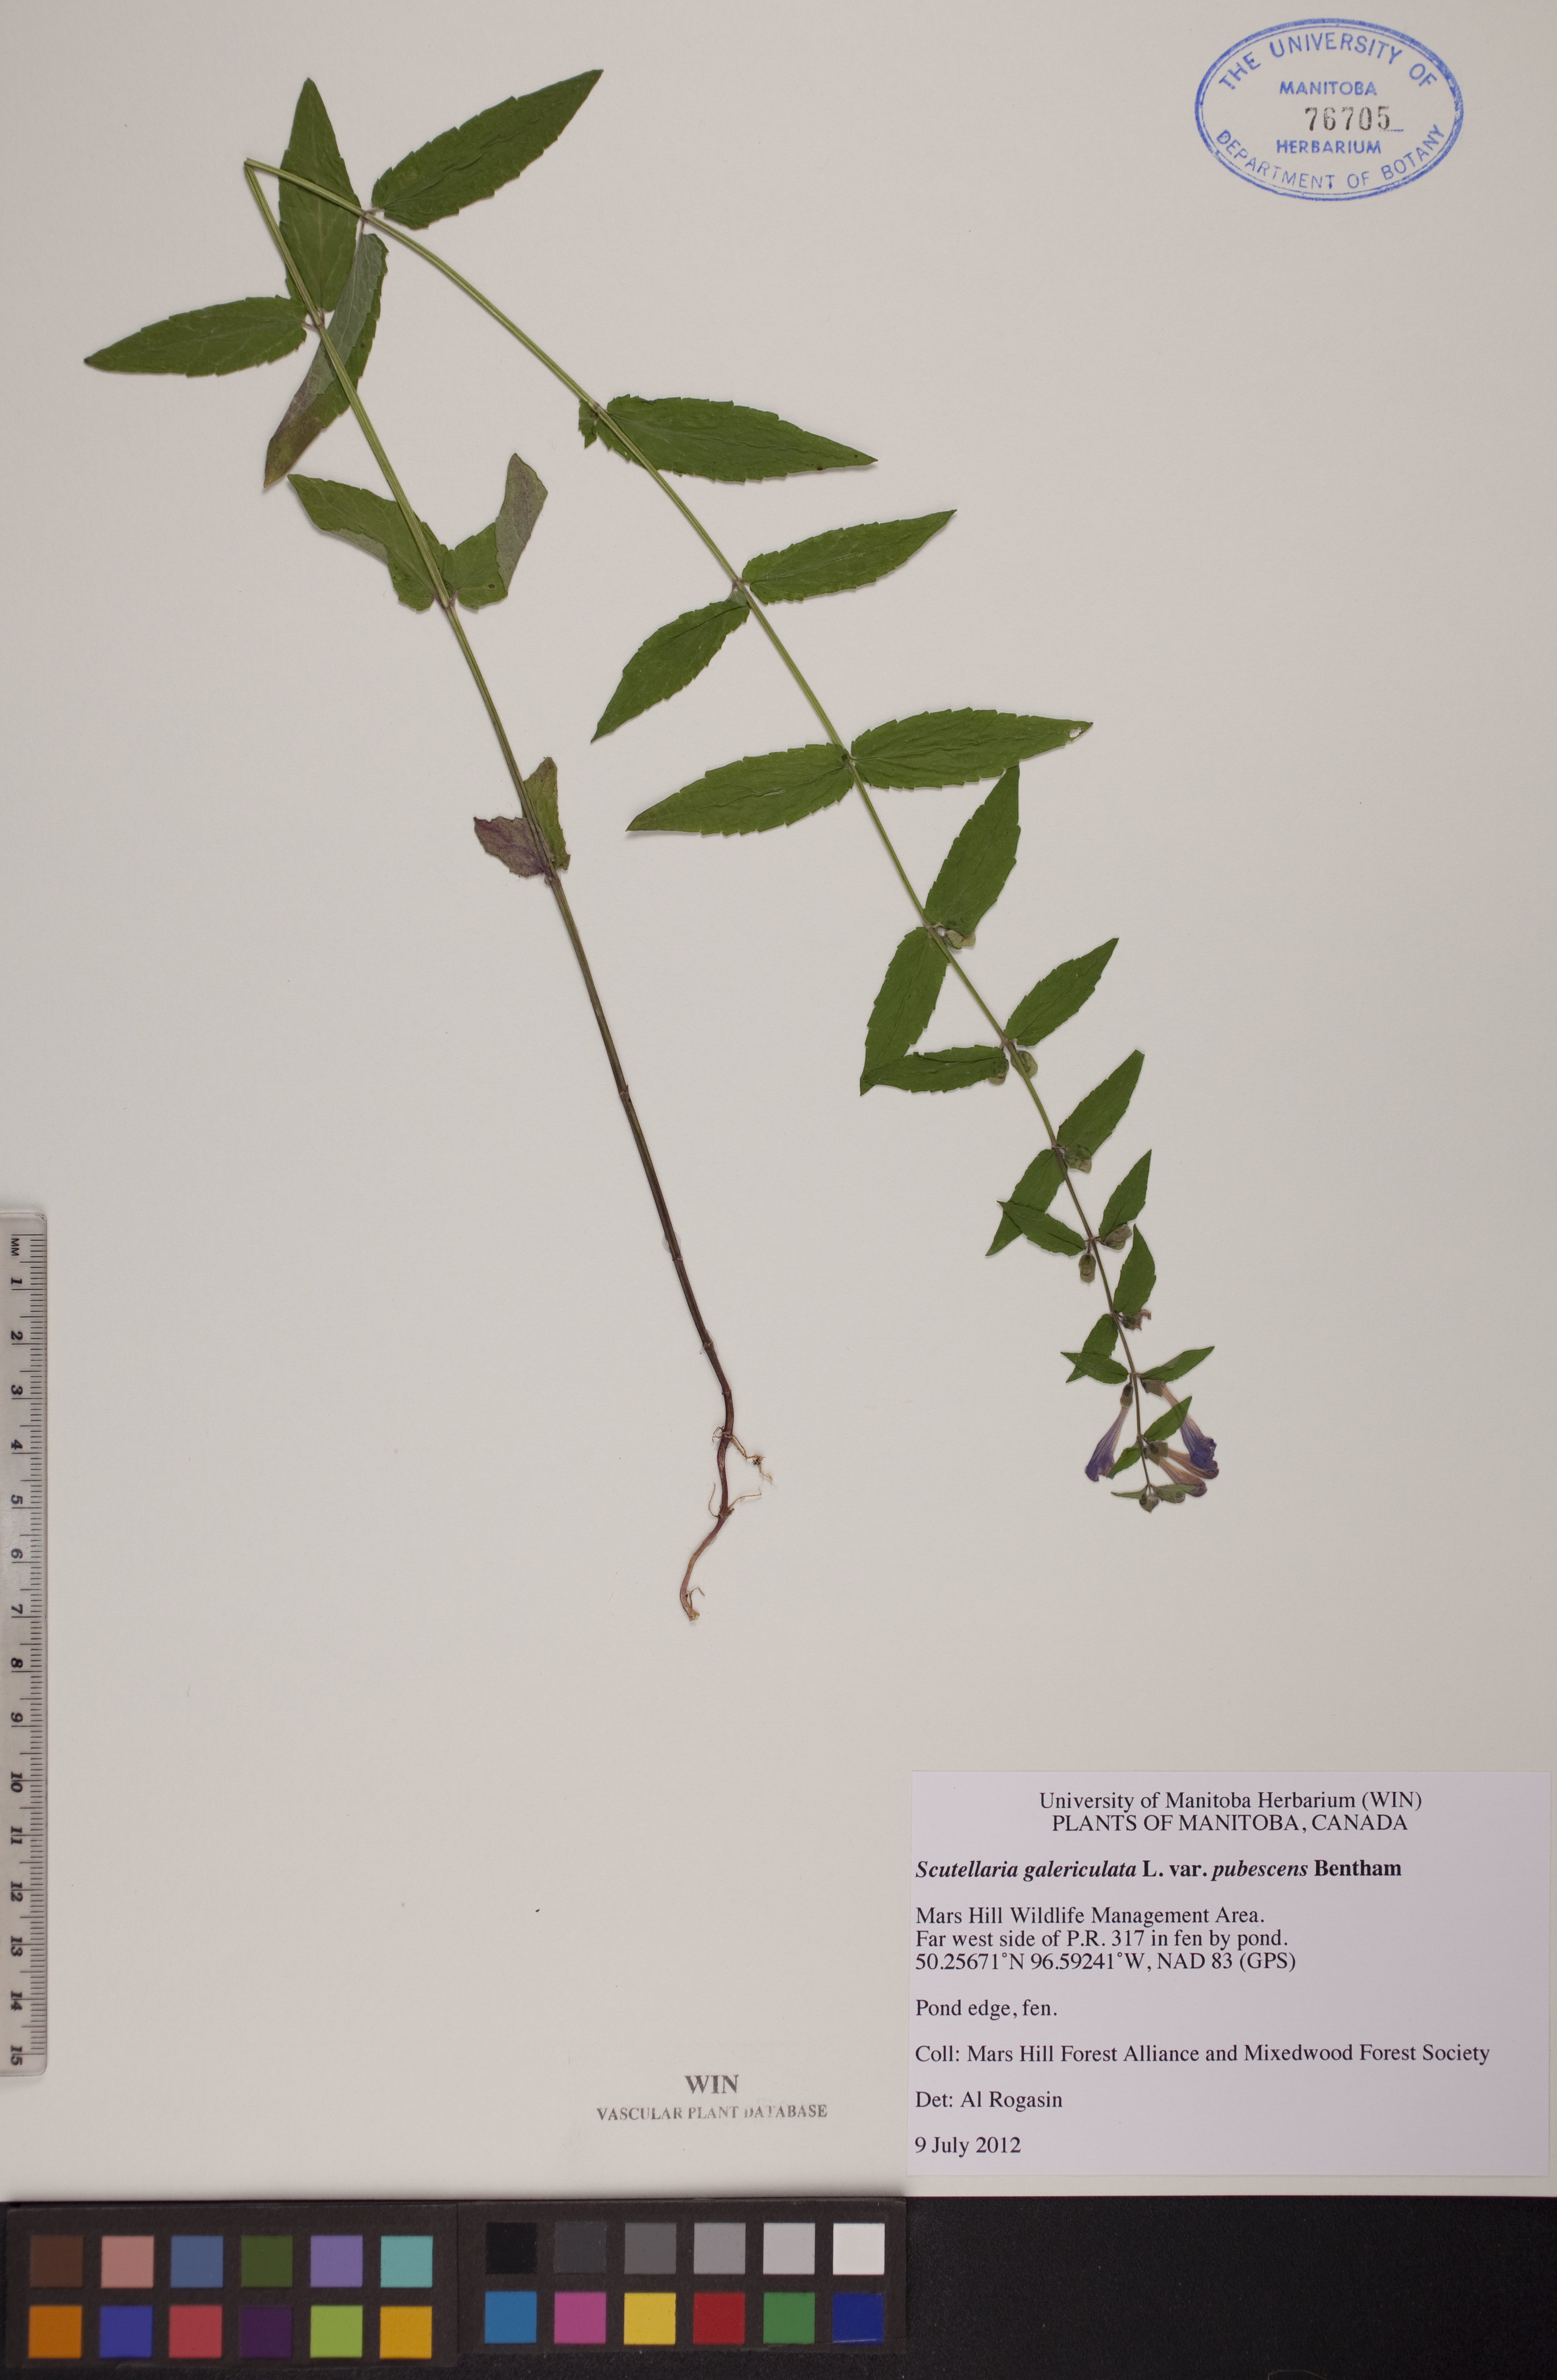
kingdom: Plantae
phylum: Tracheophyta
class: Magnoliopsida
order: Lamiales
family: Lamiaceae
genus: Scutellaria
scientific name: Scutellaria nicholsonii
